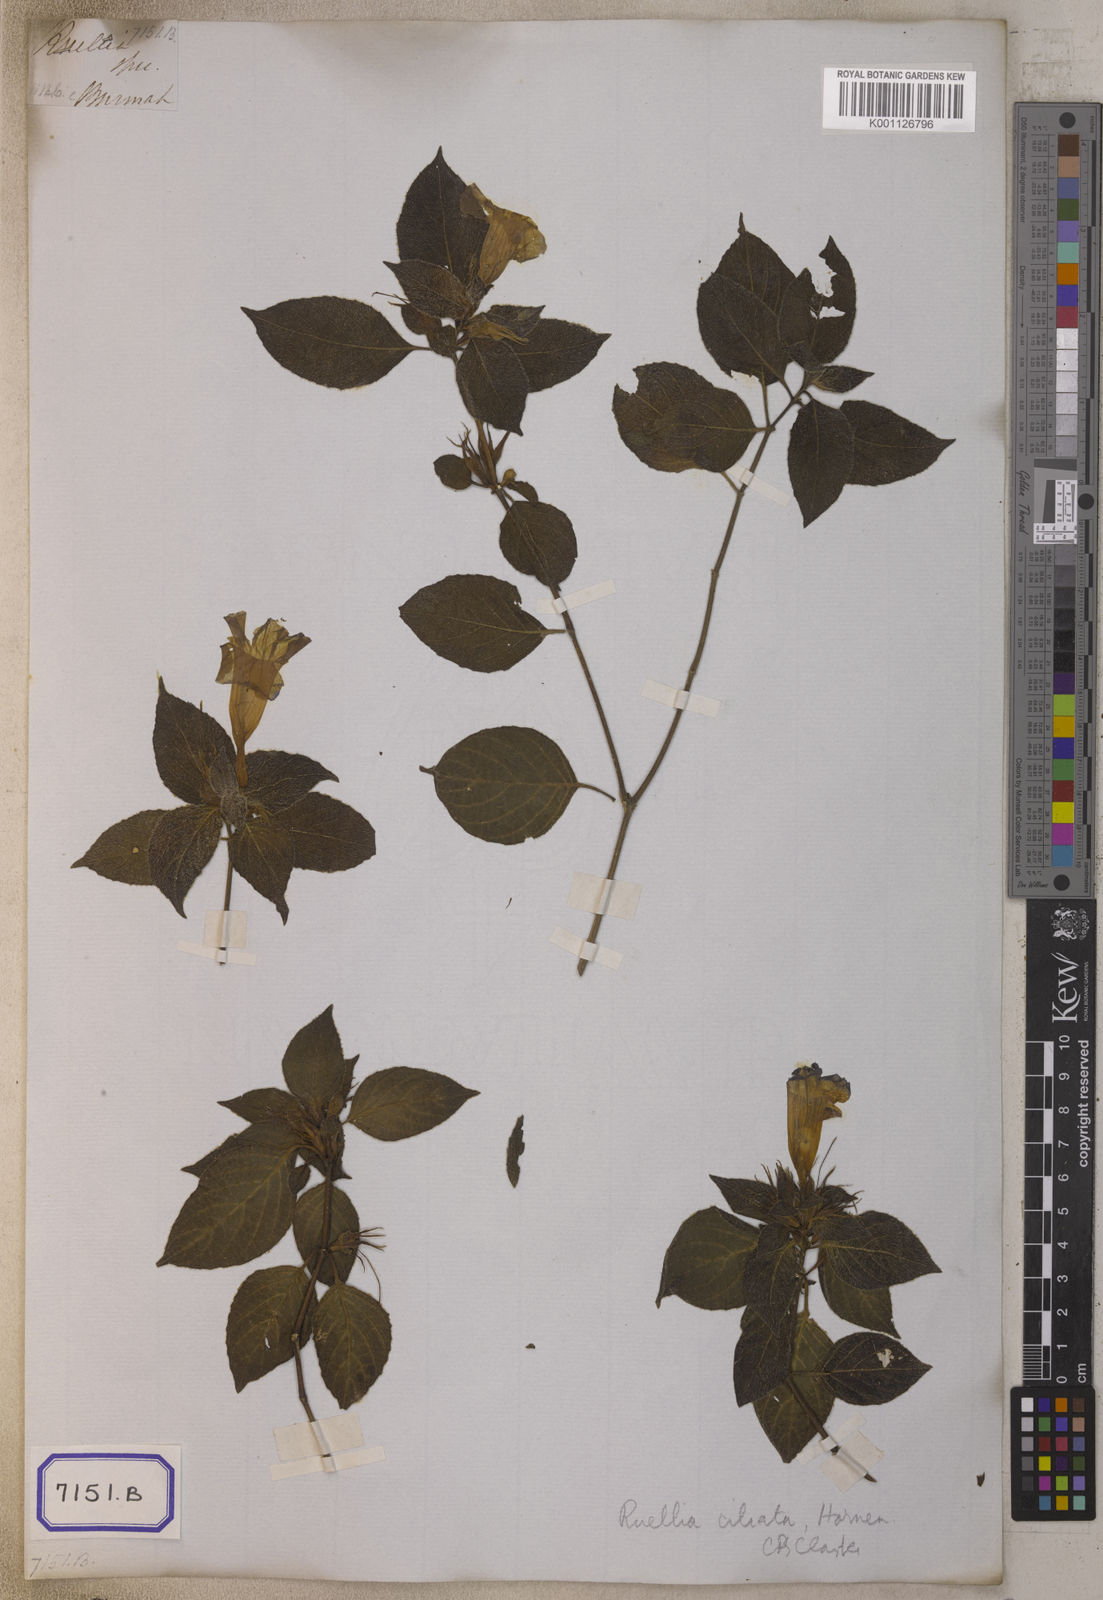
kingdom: Plantae
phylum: Tracheophyta
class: Magnoliopsida
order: Lamiales
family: Acanthaceae
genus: Ruellia
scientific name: Ruellia ciliata
